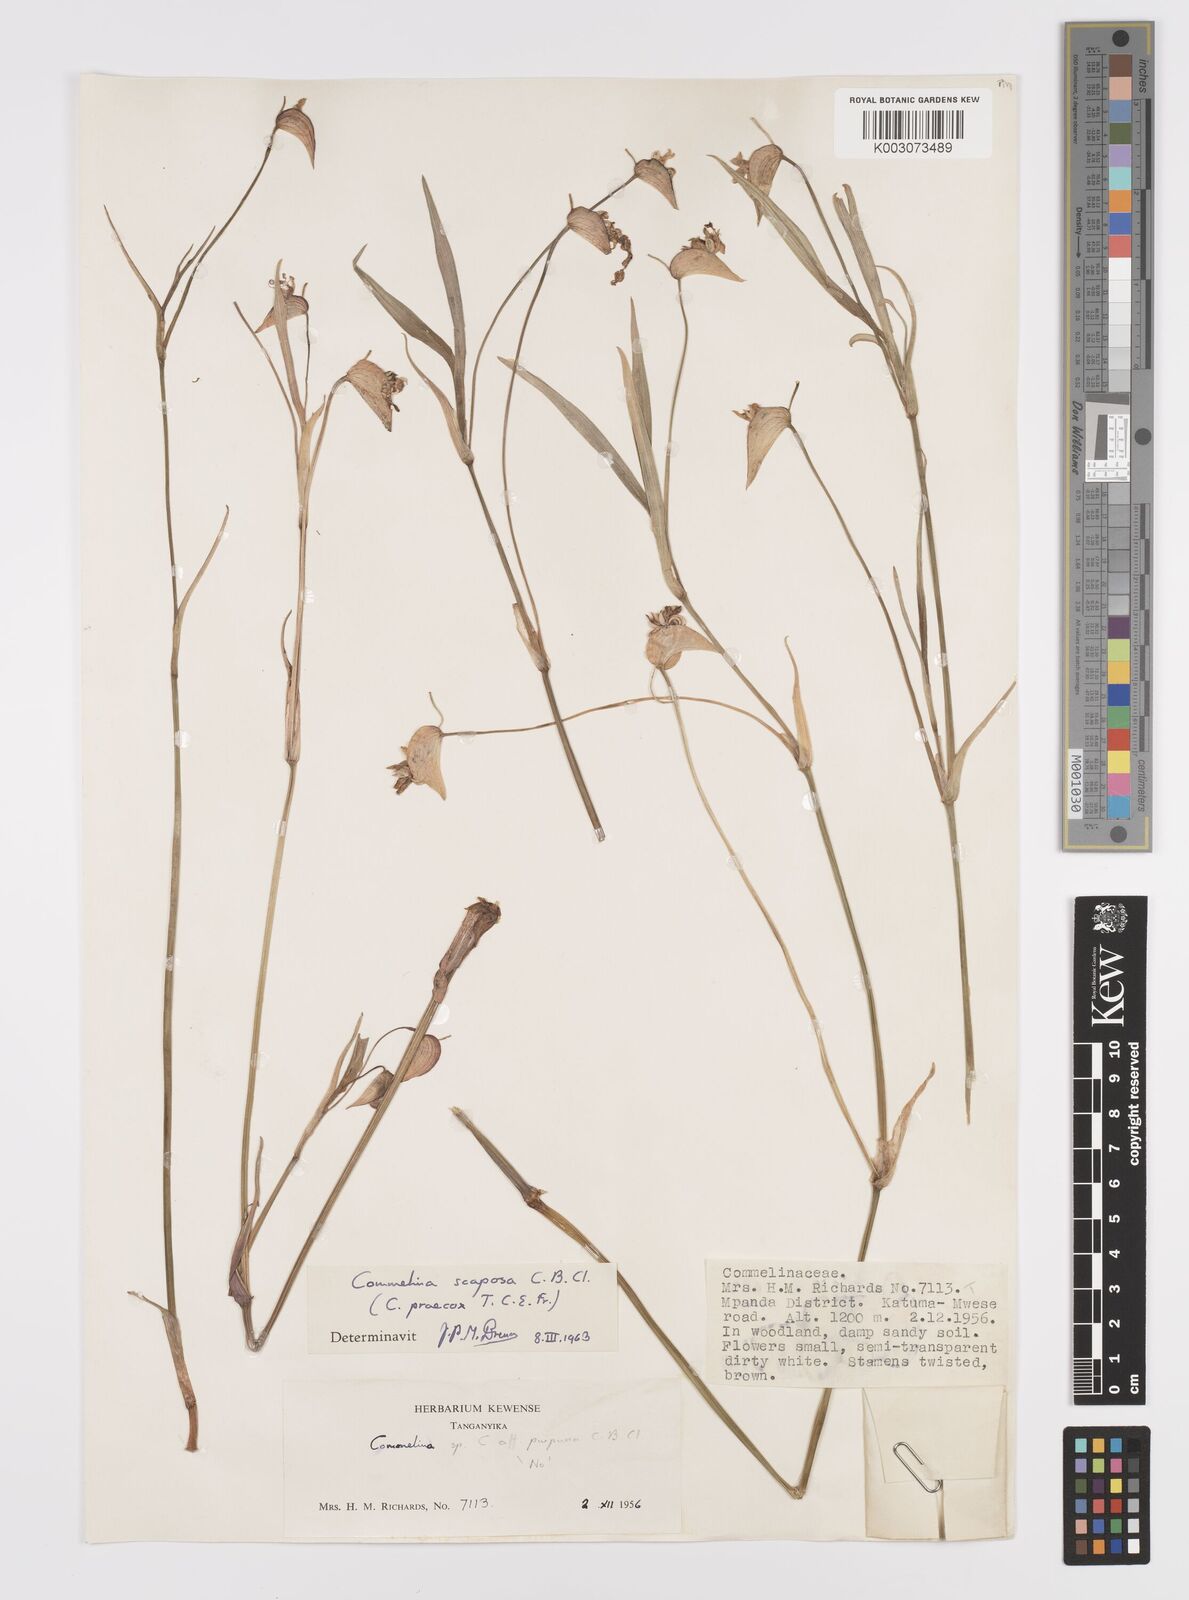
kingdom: Plantae
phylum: Tracheophyta
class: Liliopsida
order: Commelinales
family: Commelinaceae
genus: Commelina
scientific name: Commelina scaposa
